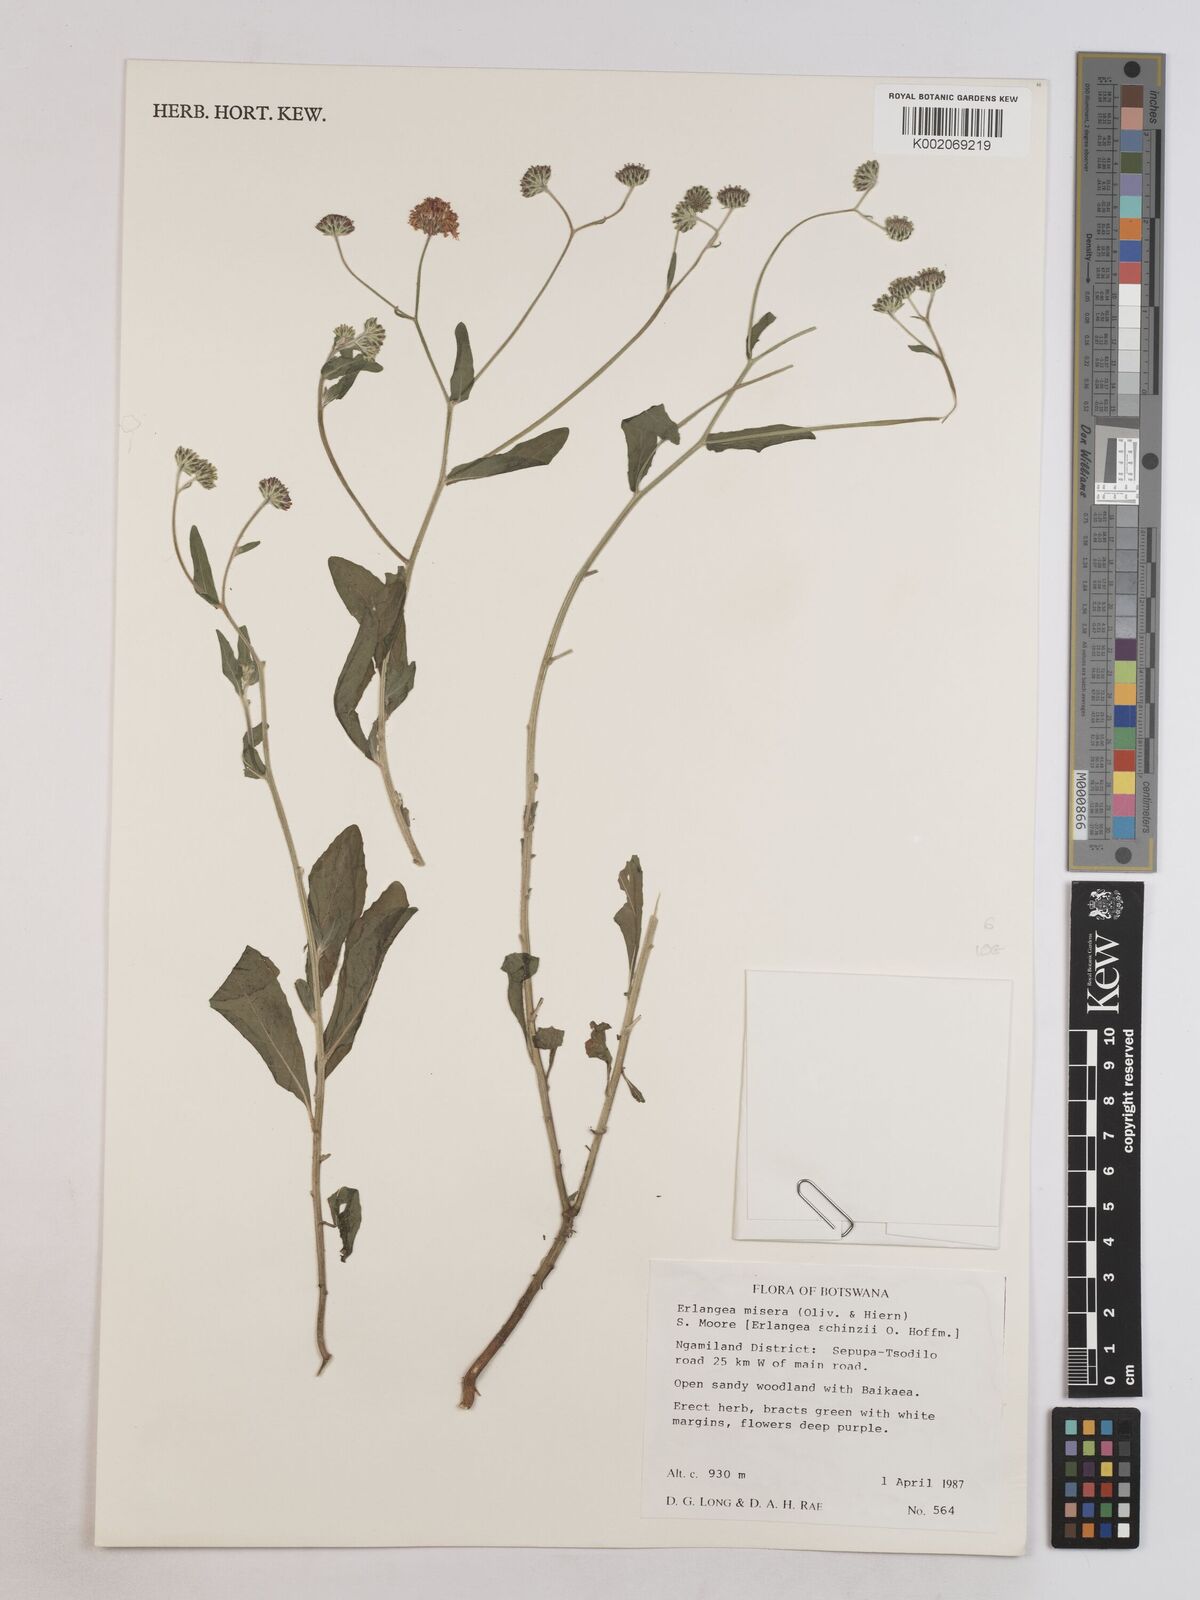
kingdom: Plantae
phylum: Tracheophyta
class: Magnoliopsida
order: Asterales
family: Asteraceae
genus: Erlangea
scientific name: Erlangea misera
